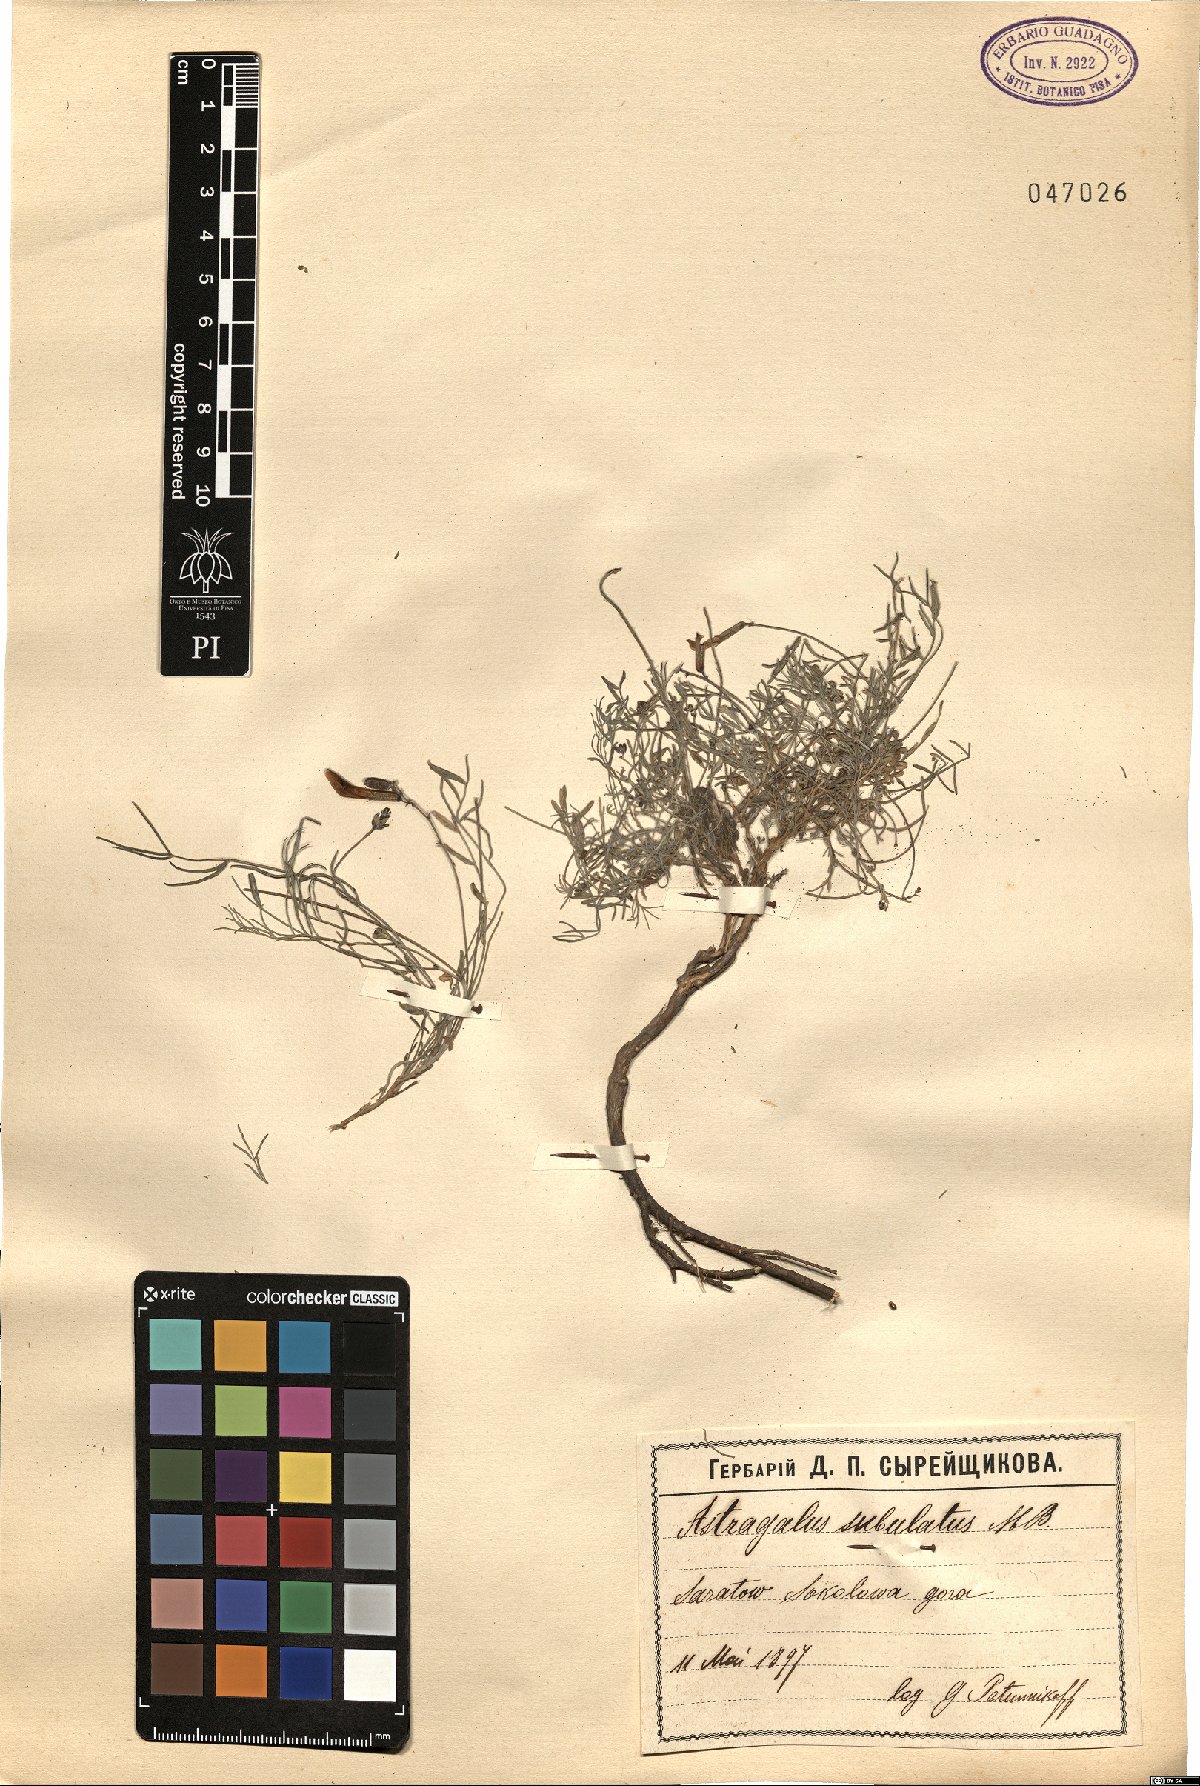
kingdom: Plantae
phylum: Tracheophyta
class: Magnoliopsida
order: Fabales
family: Fabaceae
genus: Astragalus
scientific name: Astragalus anfractuosus
